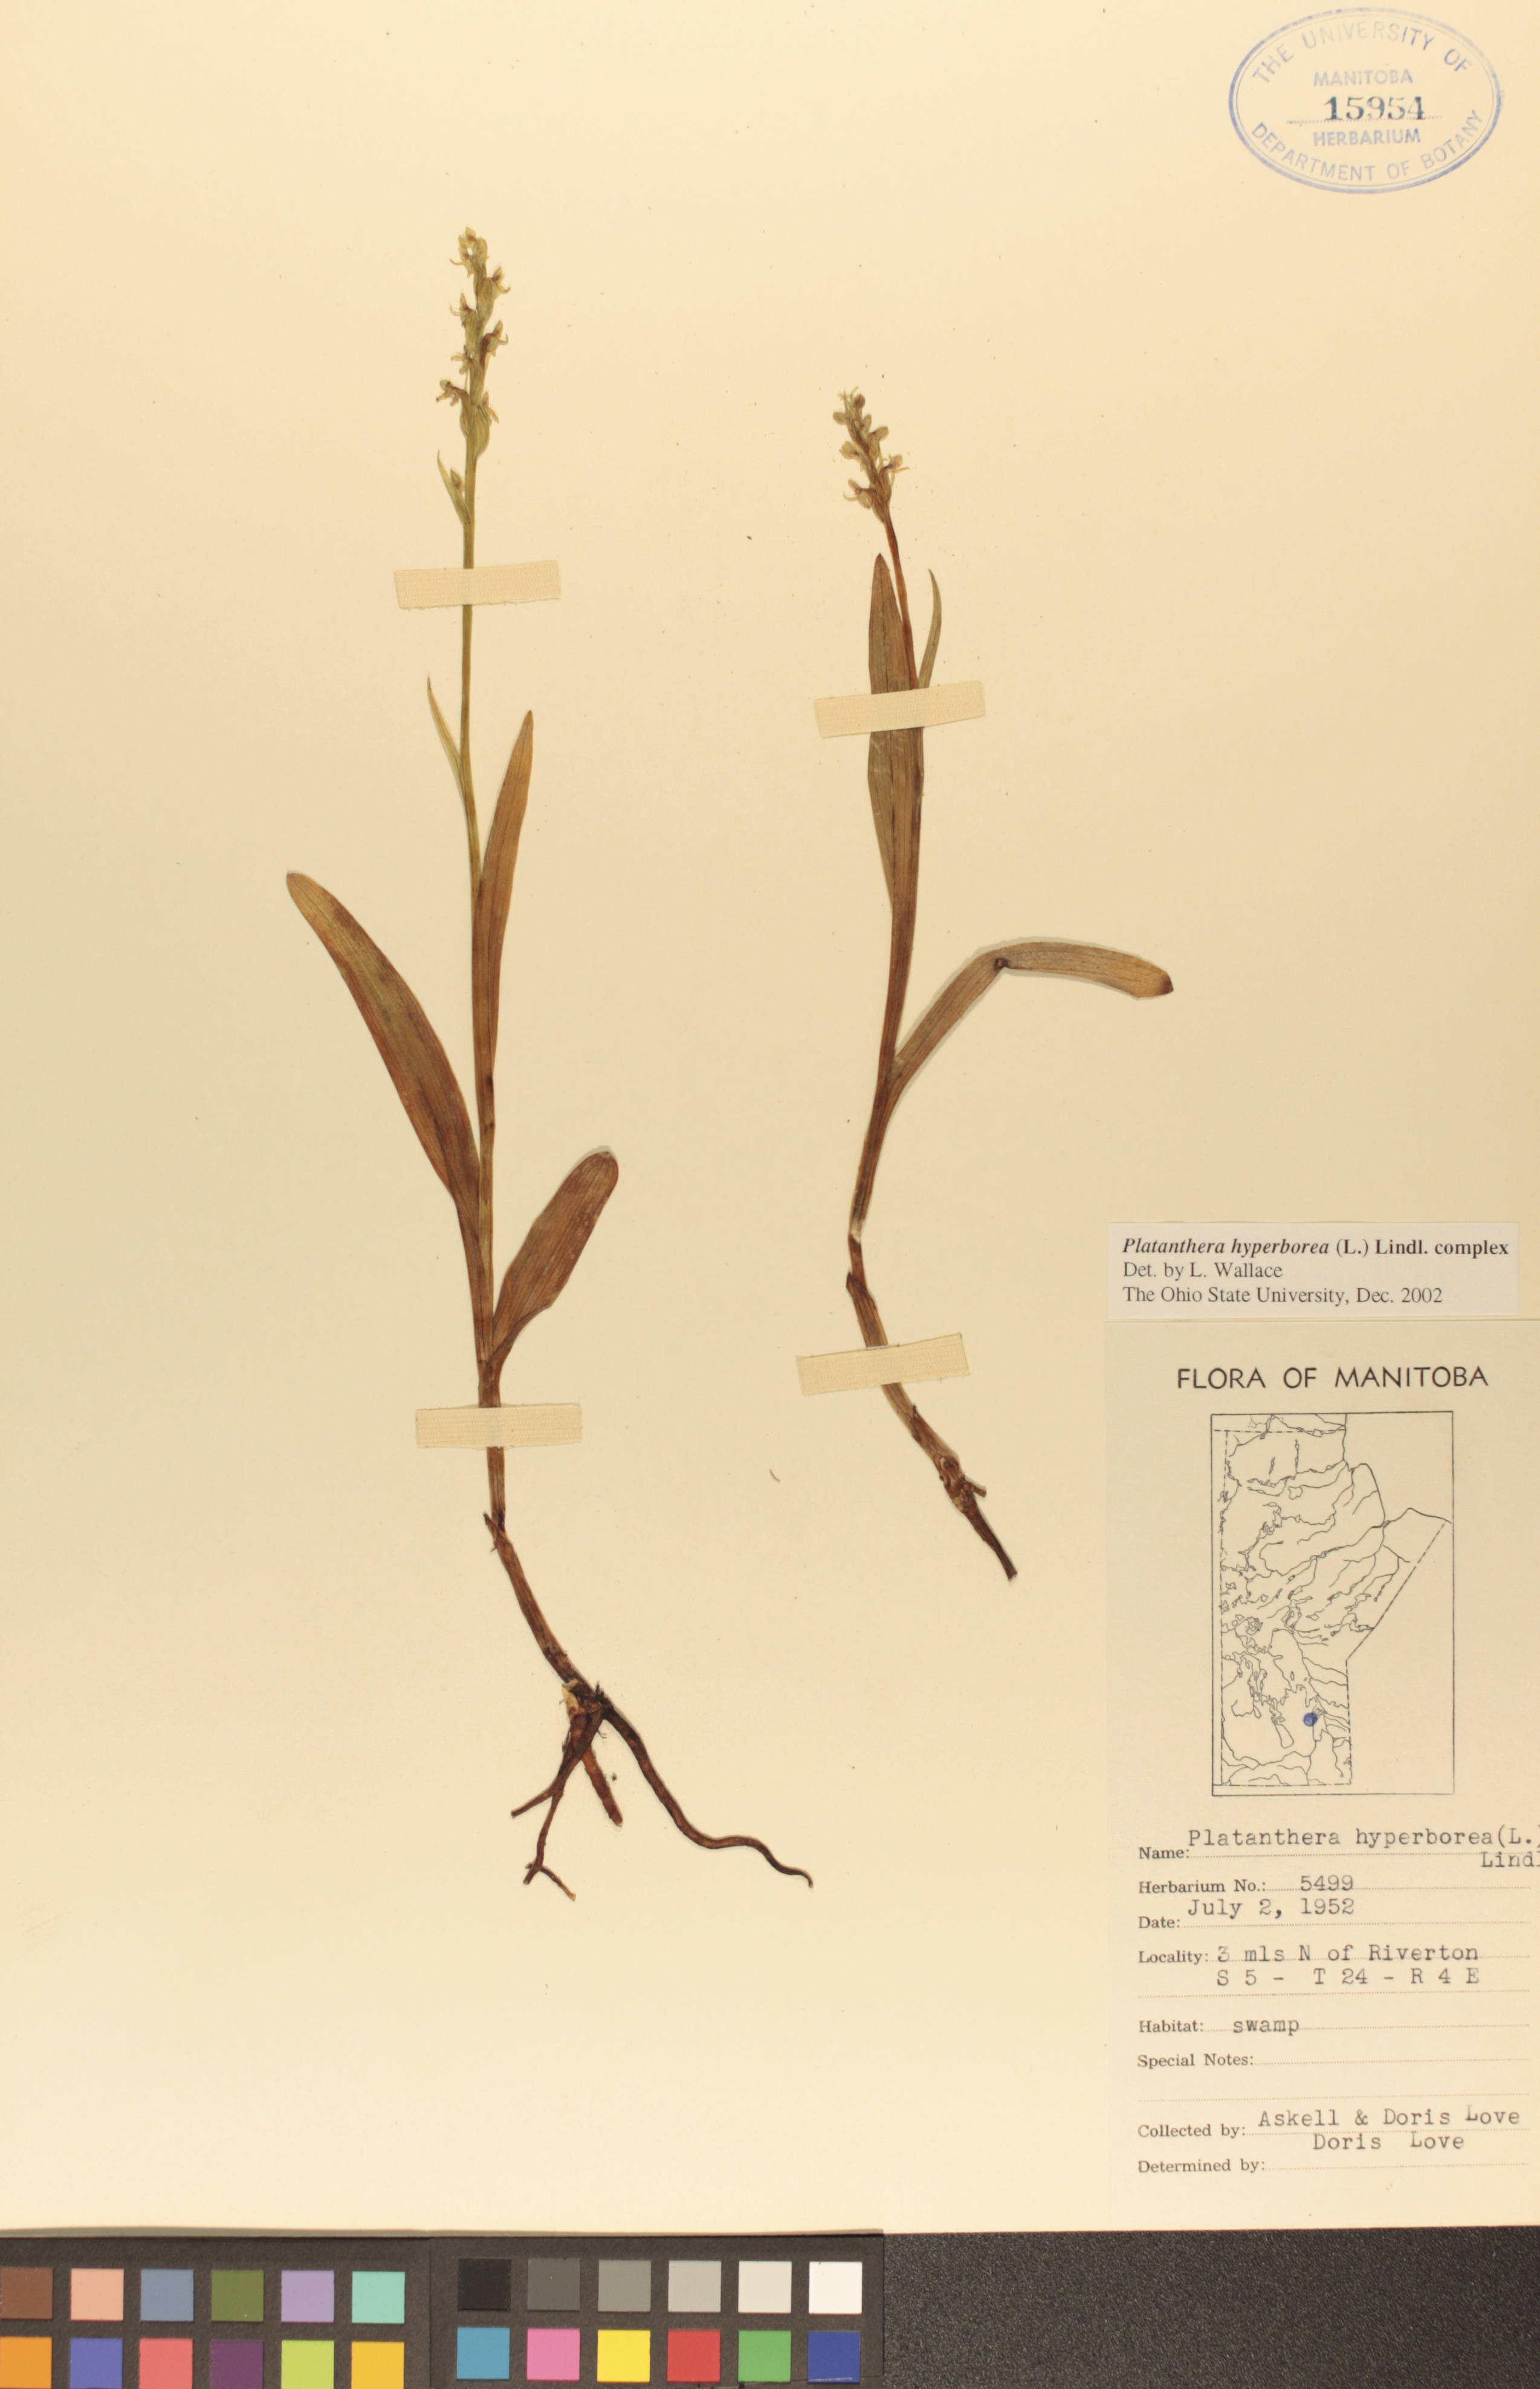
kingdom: Plantae
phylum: Tracheophyta
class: Liliopsida
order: Asparagales
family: Orchidaceae
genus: Platanthera
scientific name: Platanthera hyperborea
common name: Northern green orchid
